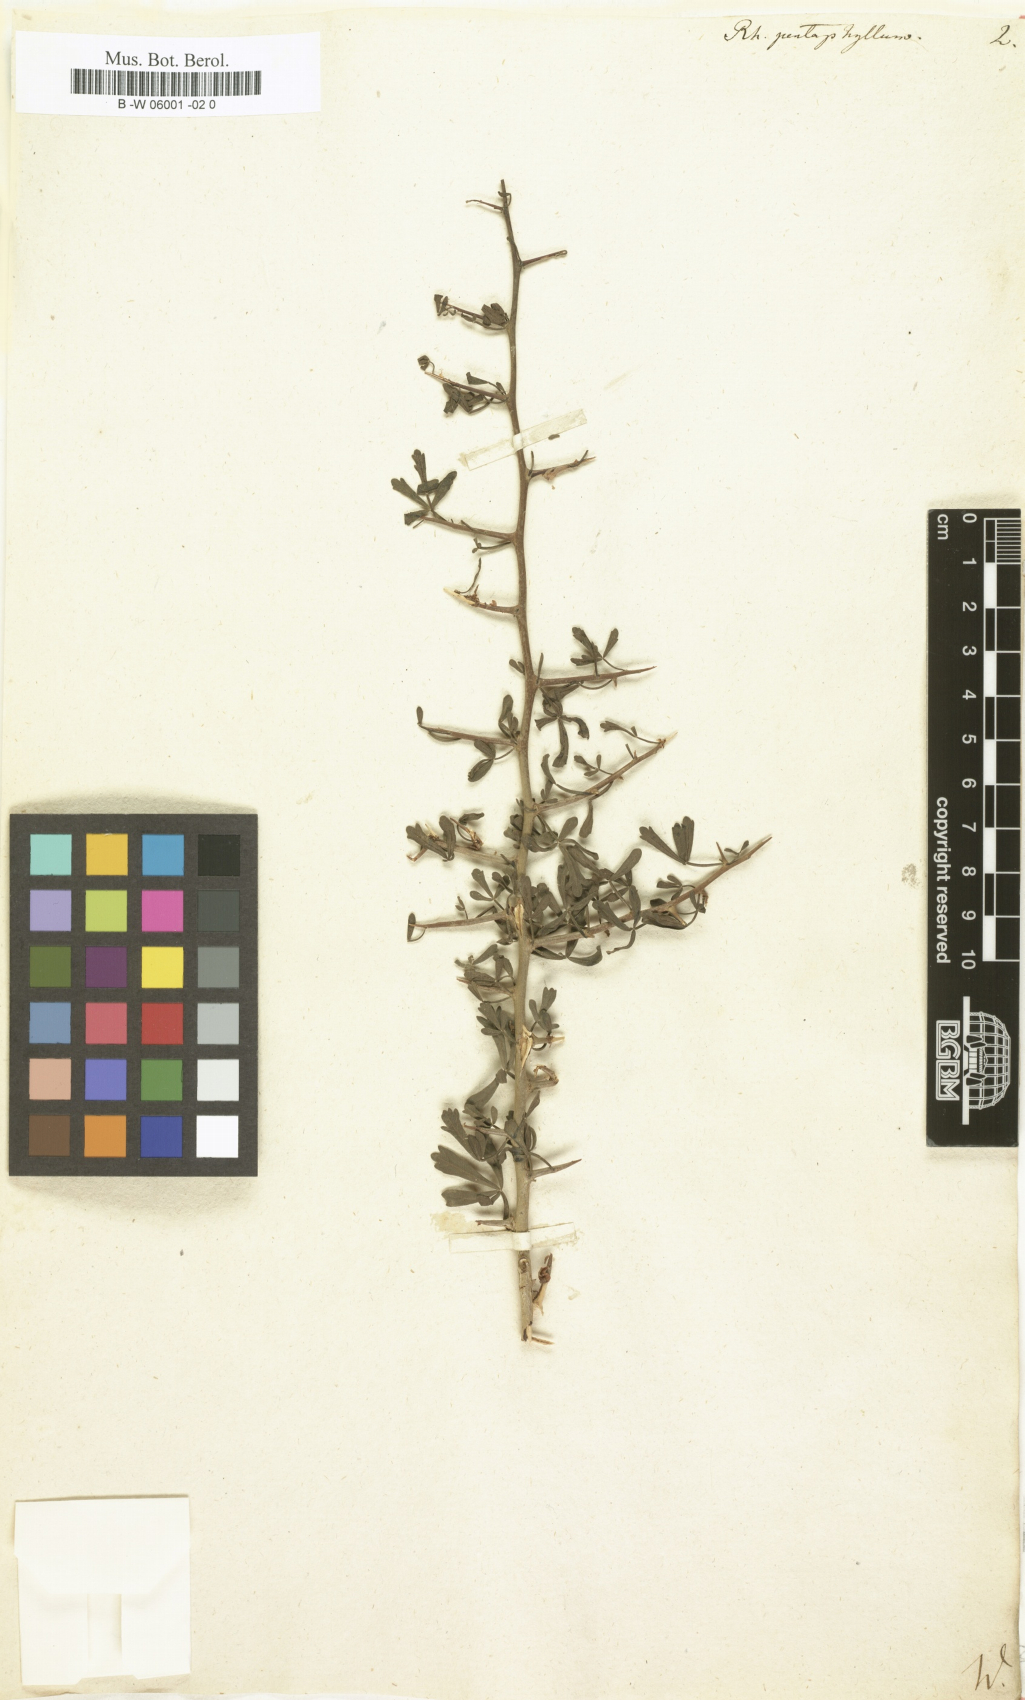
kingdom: Plantae
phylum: Tracheophyta
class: Magnoliopsida
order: Sapindales
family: Anacardiaceae
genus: Searsia
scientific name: Searsia pentaphylla
